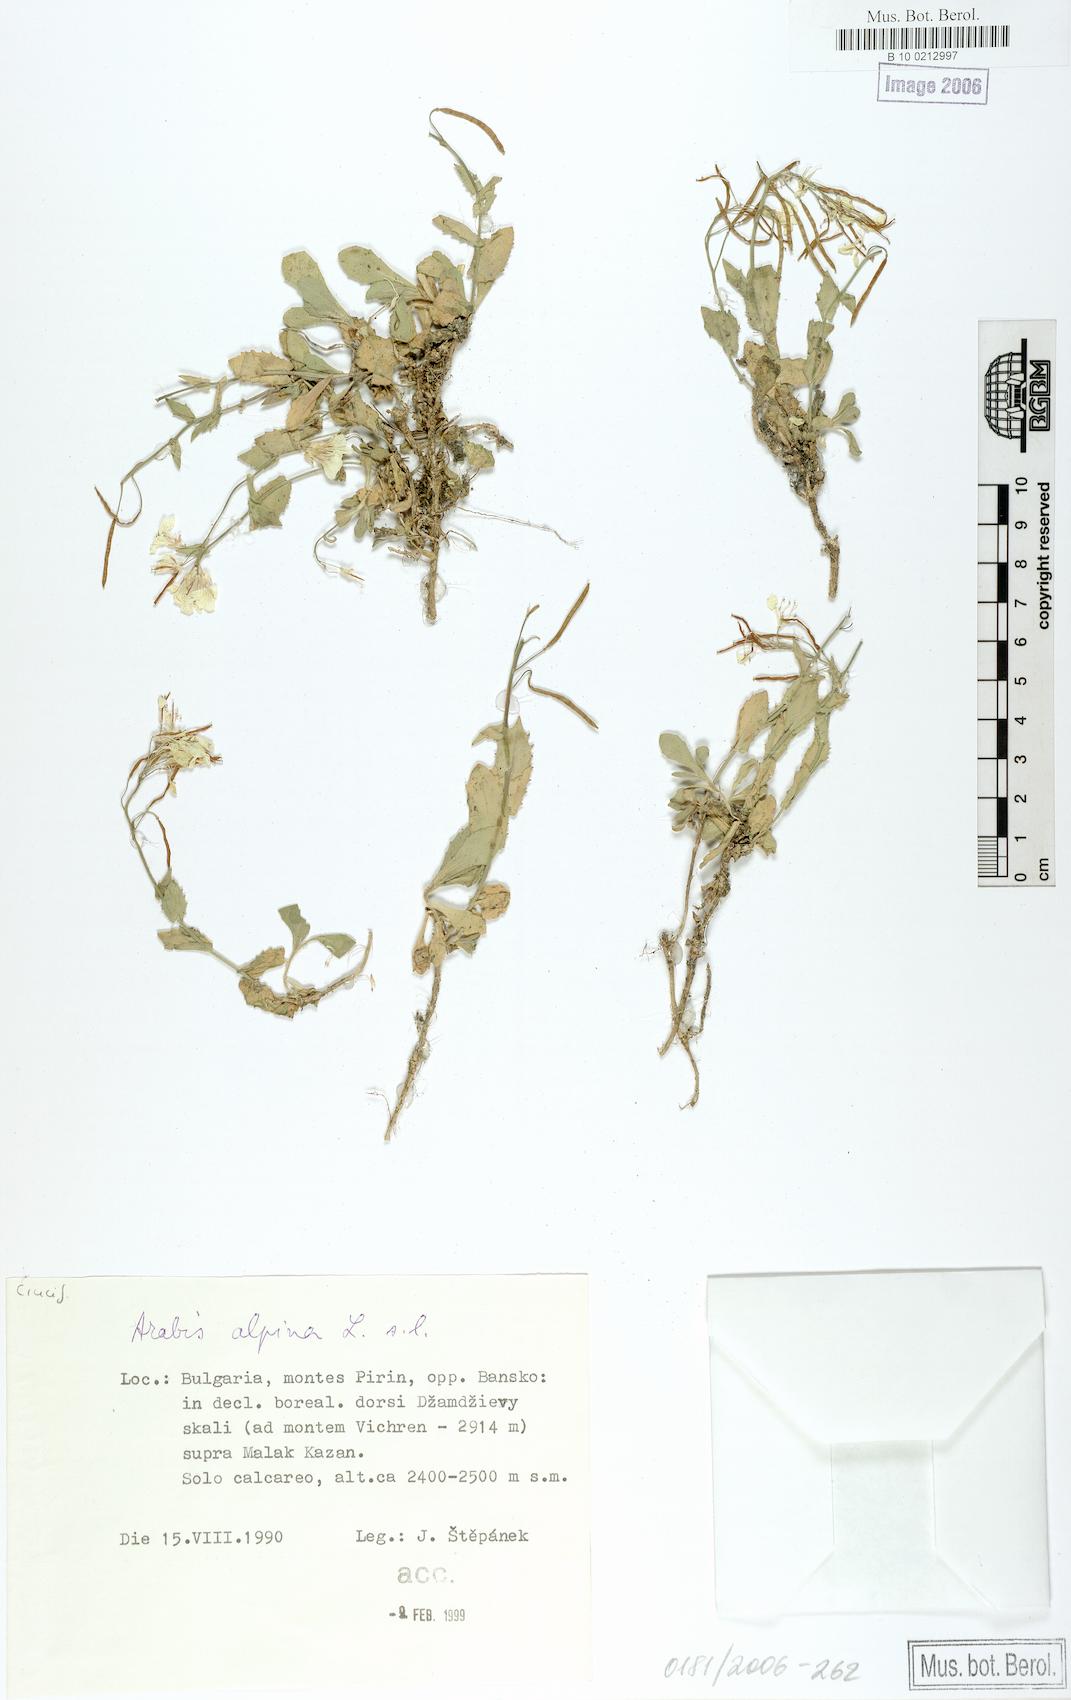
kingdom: Plantae
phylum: Tracheophyta
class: Magnoliopsida
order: Brassicales
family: Brassicaceae
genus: Arabis
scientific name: Arabis alpina
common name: Alpine rock-cress
